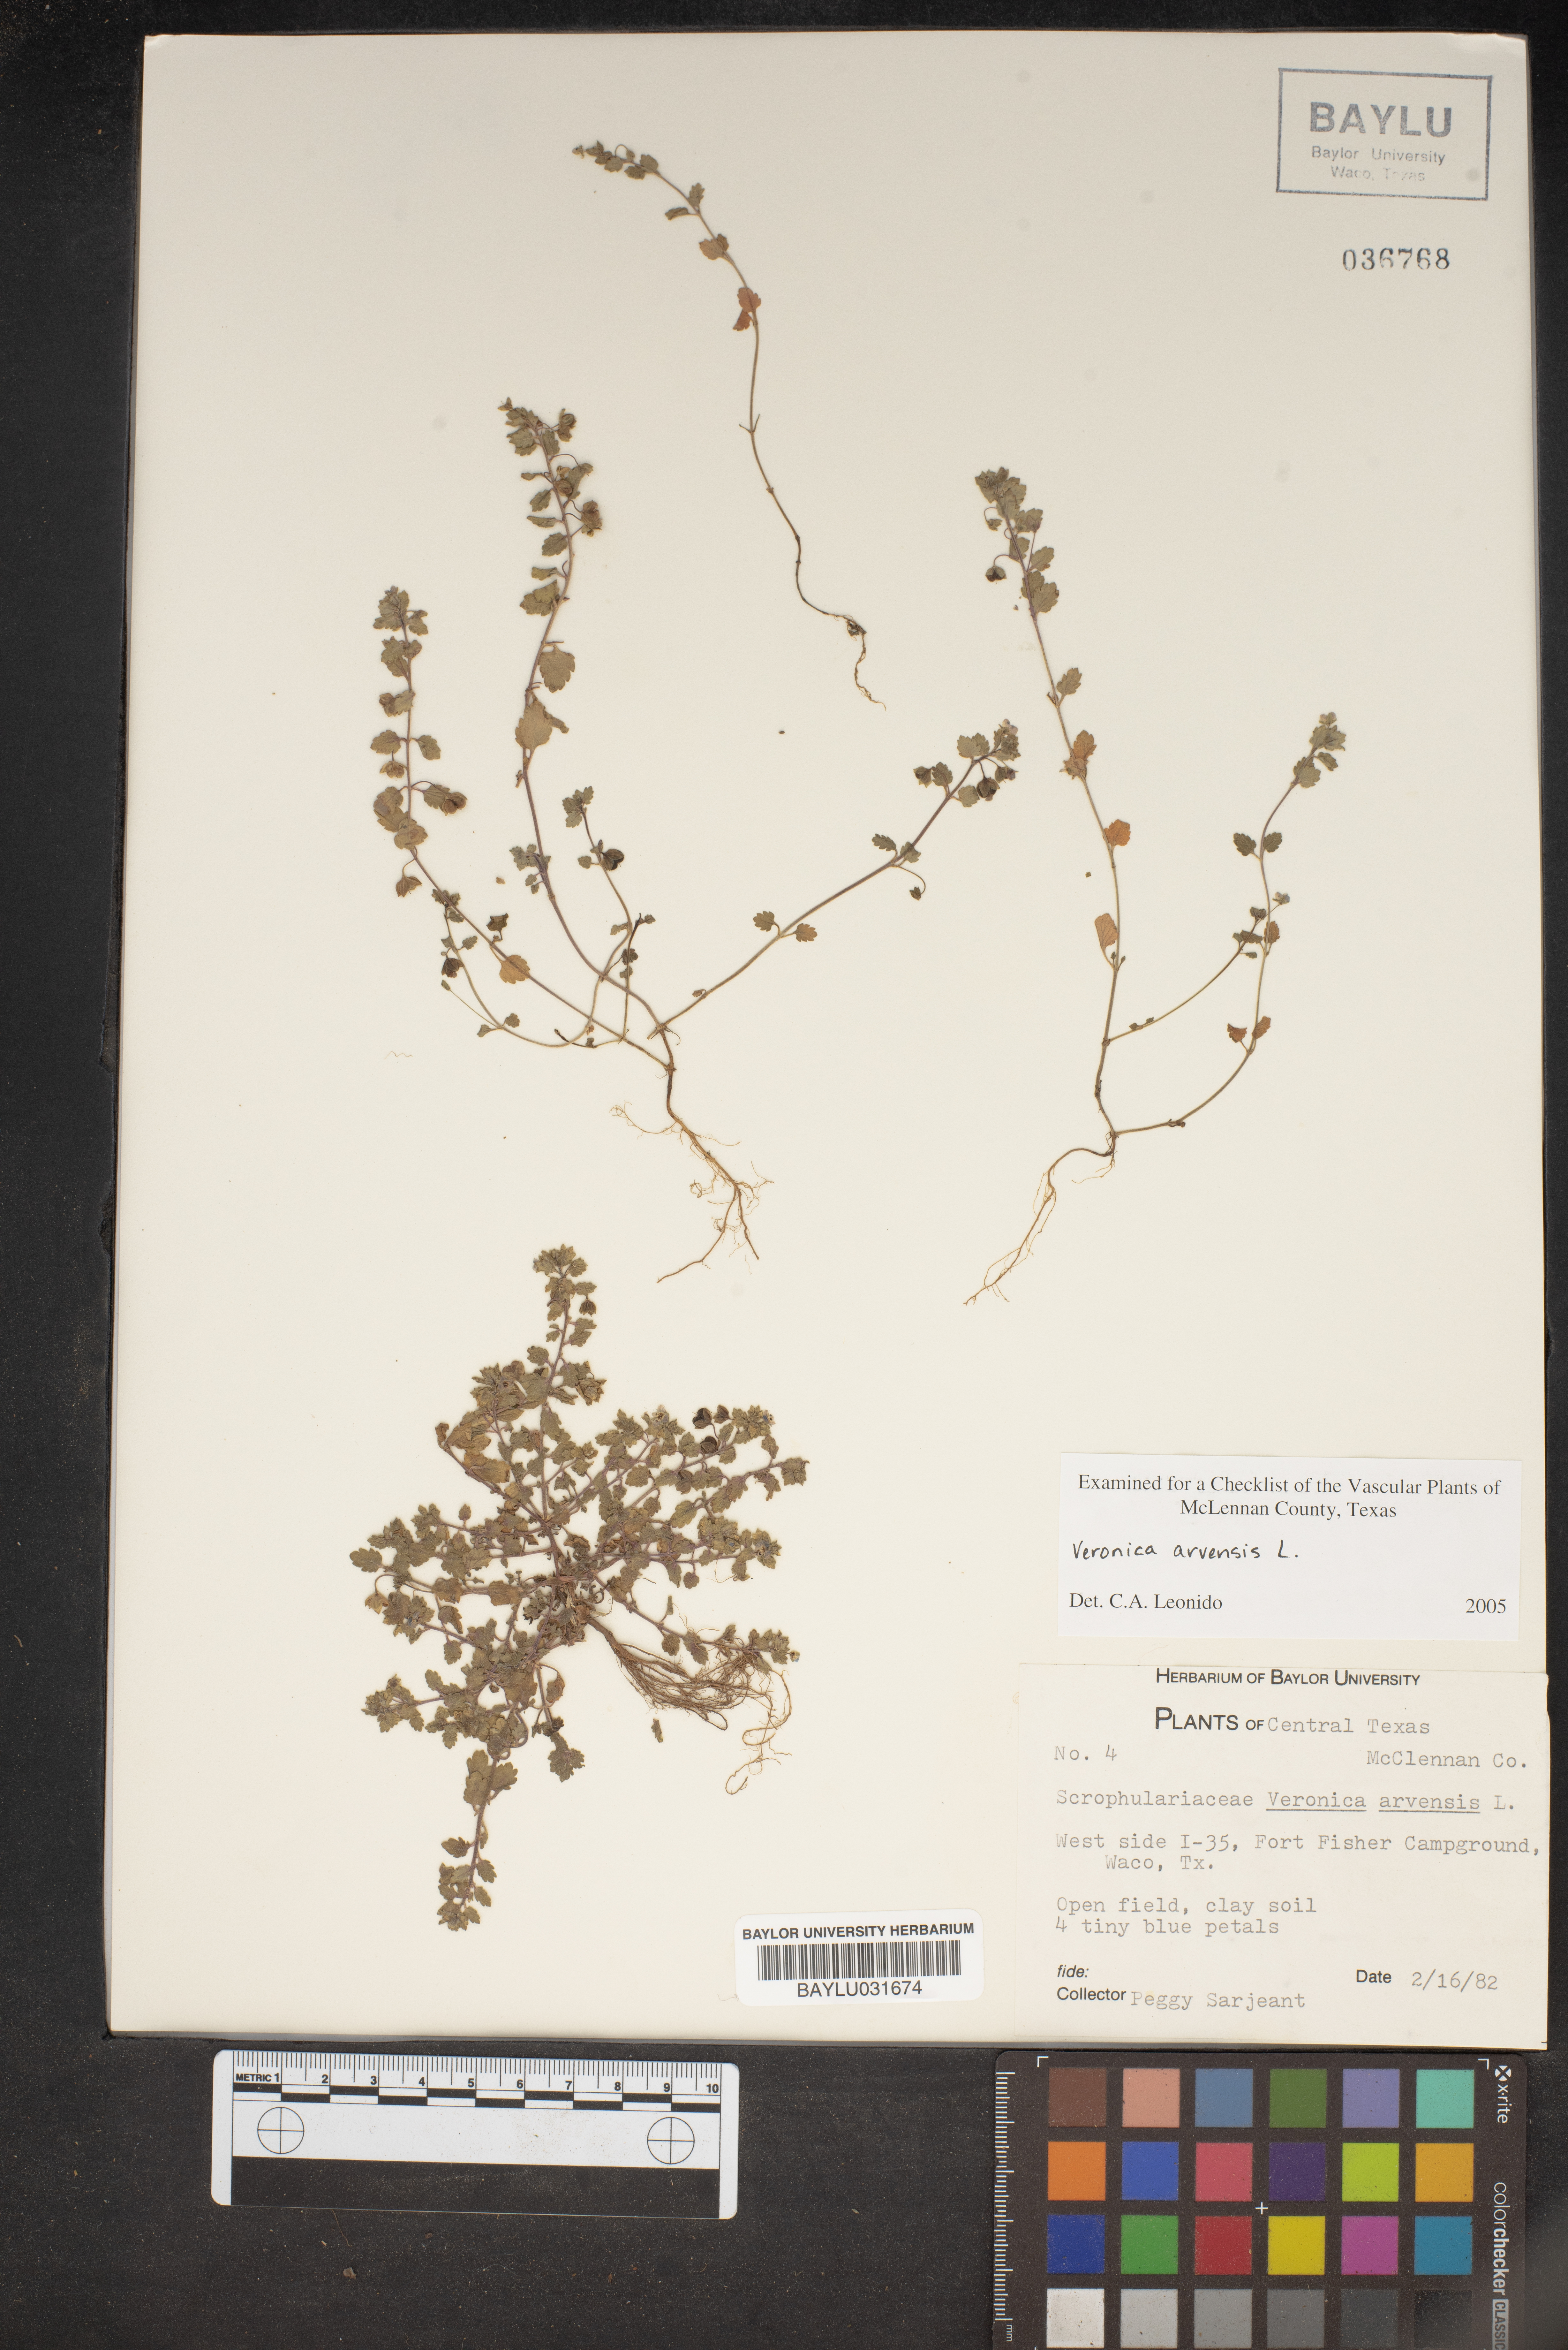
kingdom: Plantae
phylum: Tracheophyta
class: Magnoliopsida
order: Lamiales
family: Plantaginaceae
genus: Veronica
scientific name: Veronica arvensis
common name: Corn speedwell
